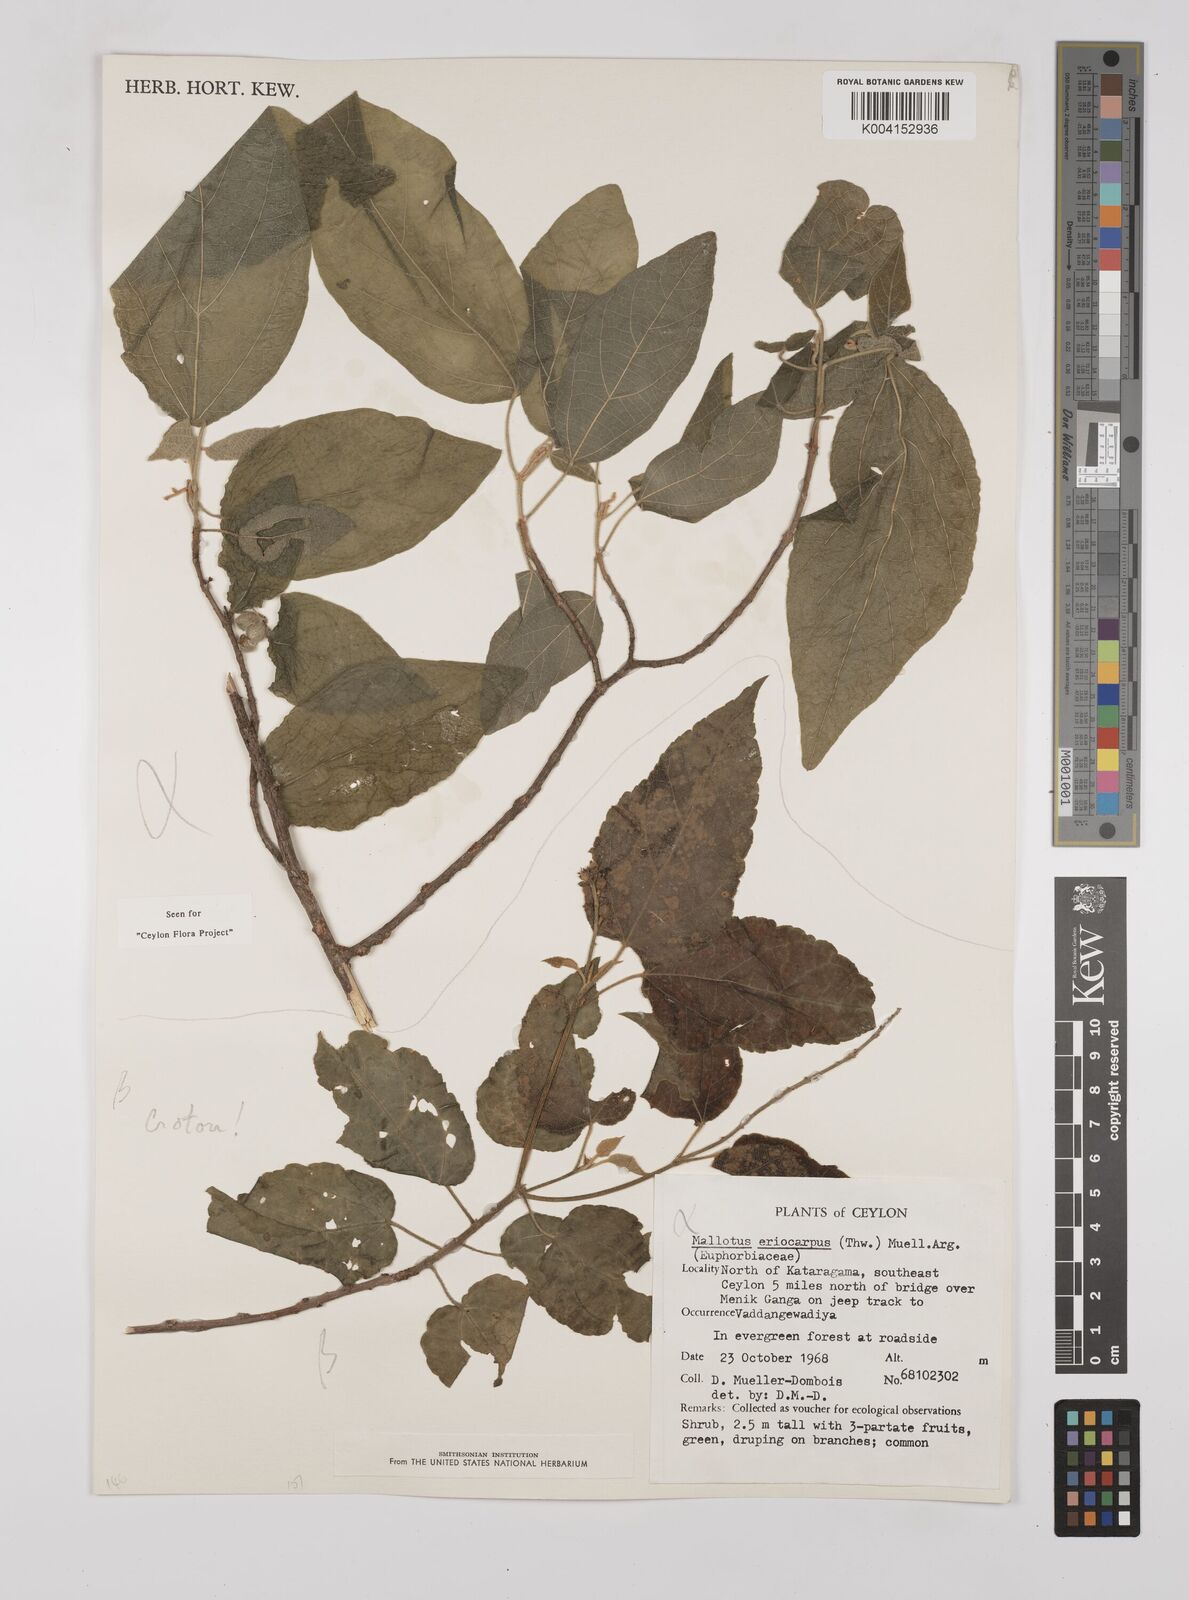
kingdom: Plantae
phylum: Tracheophyta
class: Magnoliopsida
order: Malpighiales
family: Euphorbiaceae
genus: Mallotus
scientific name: Mallotus eriocarpus
